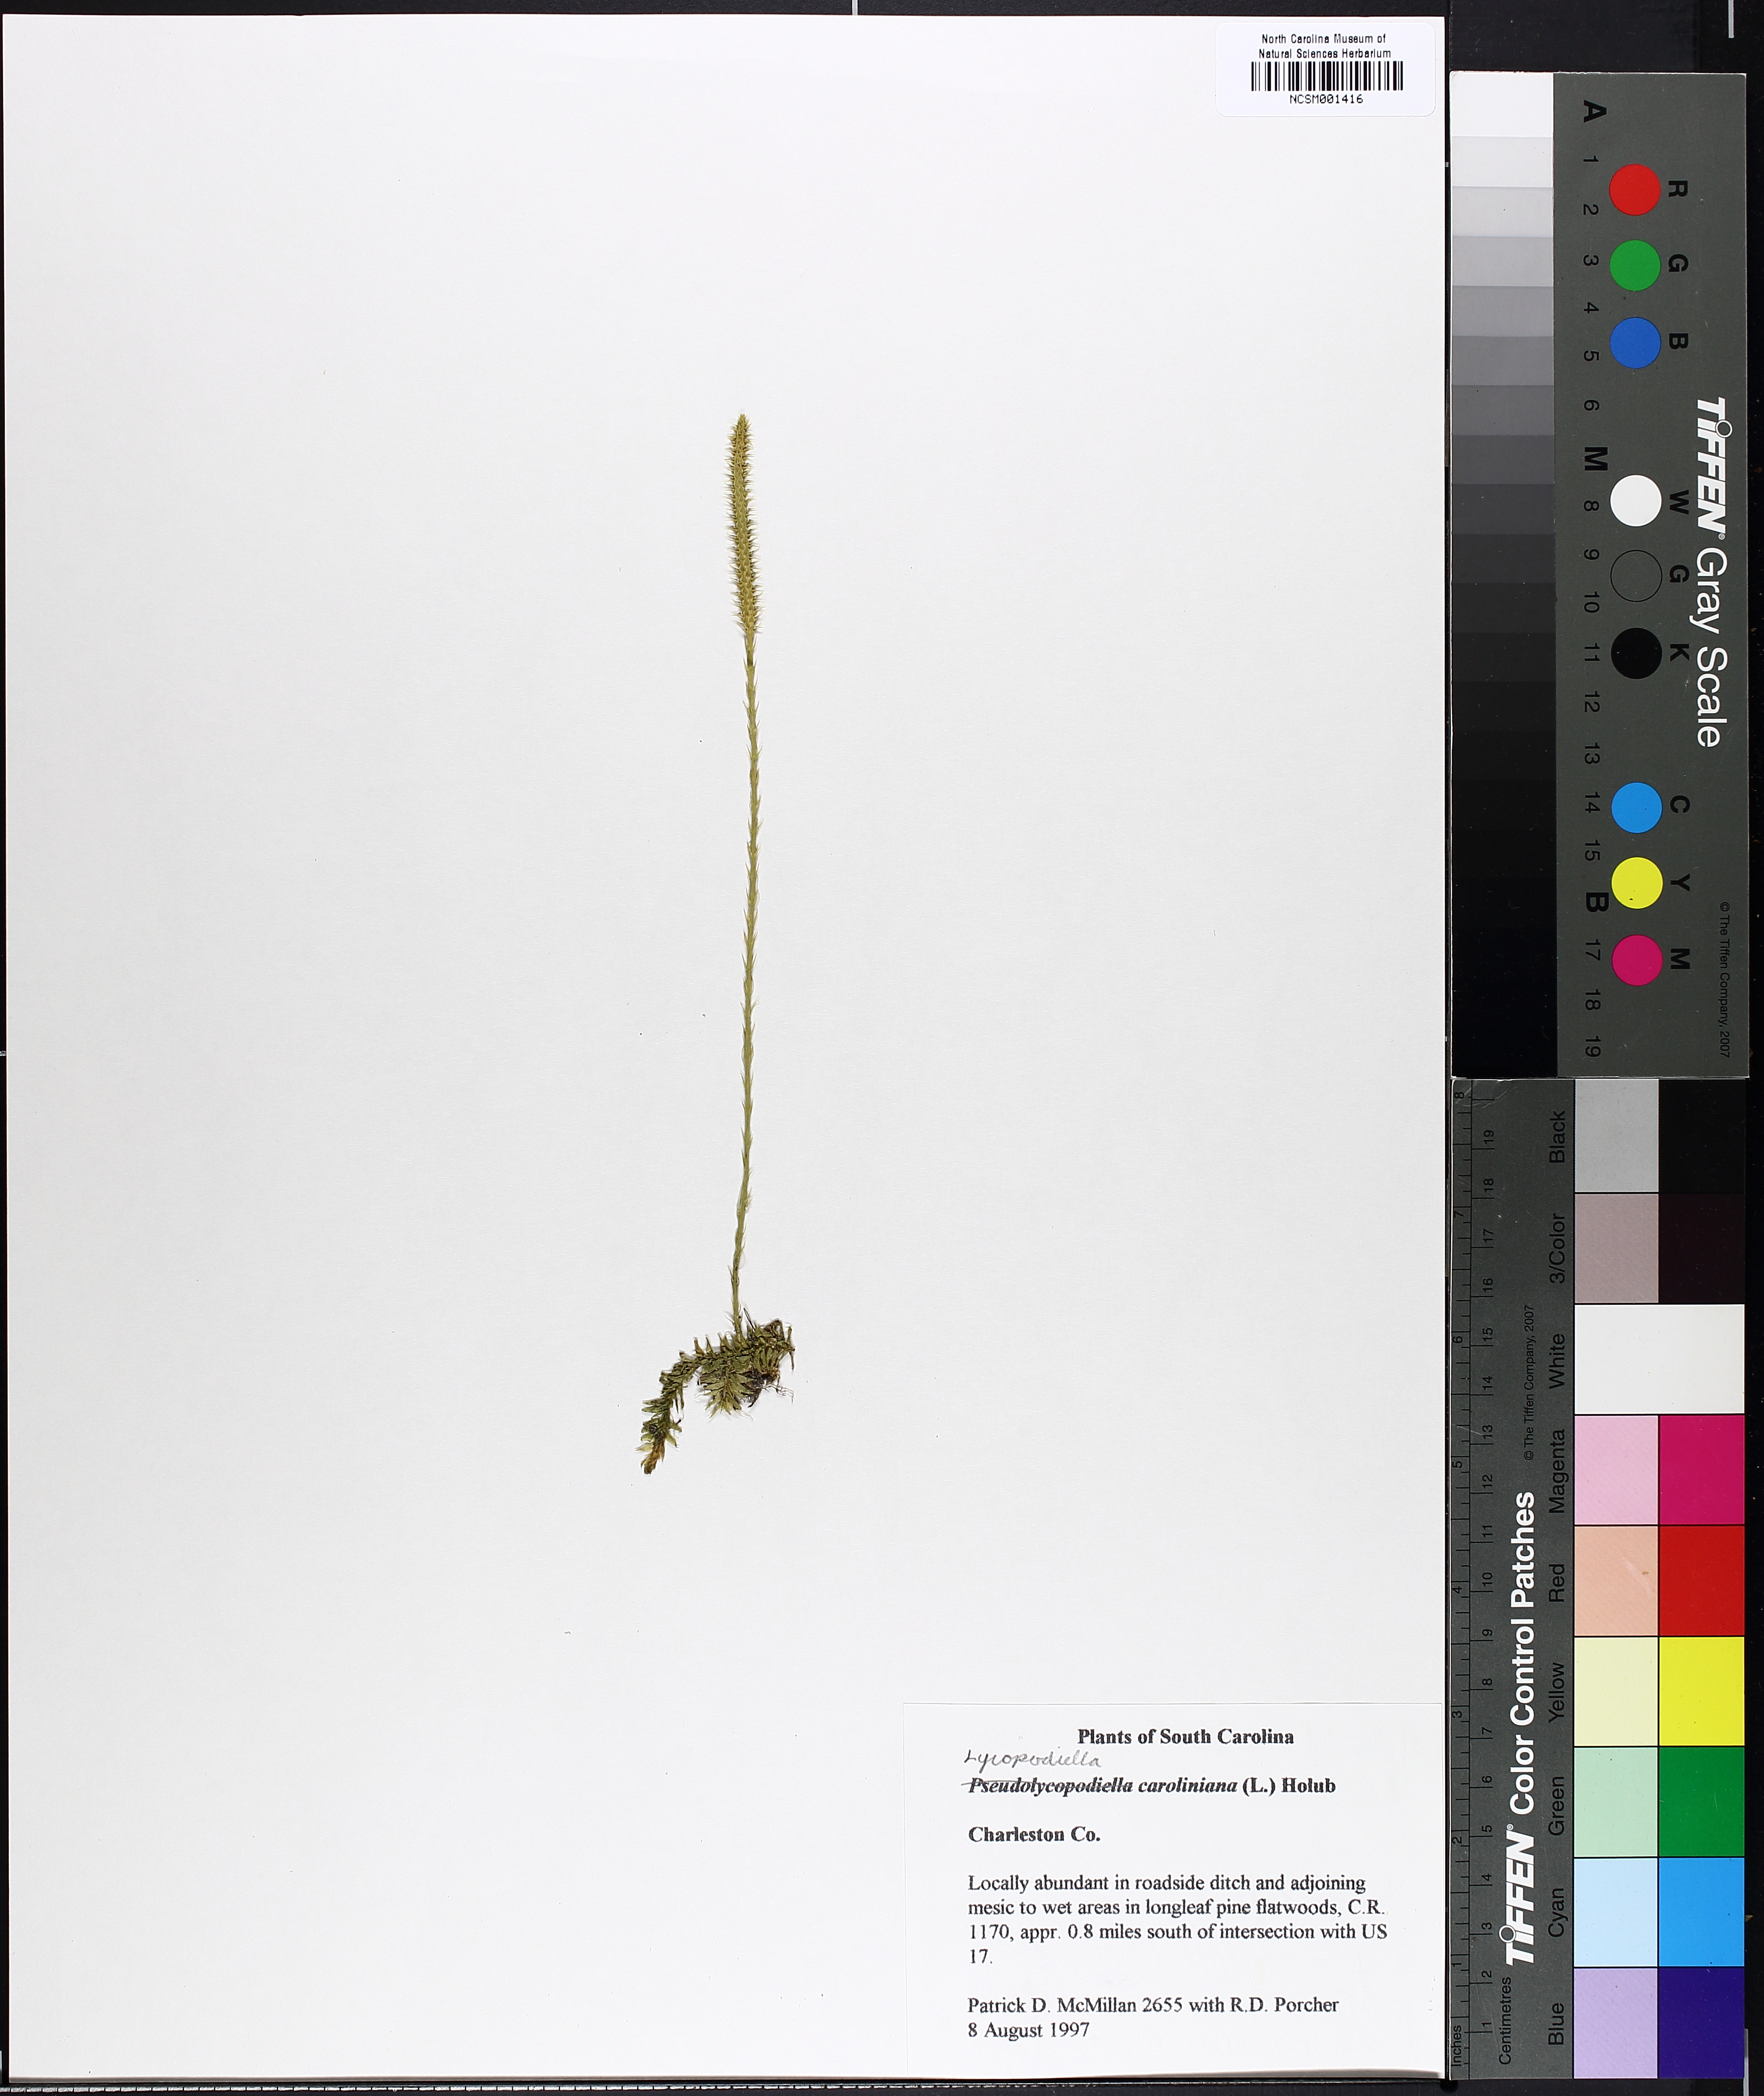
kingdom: Plantae
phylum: Tracheophyta
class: Lycopodiopsida
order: Lycopodiales
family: Lycopodiaceae
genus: Pseudolycopodiella
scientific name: Pseudolycopodiella caroliniana
